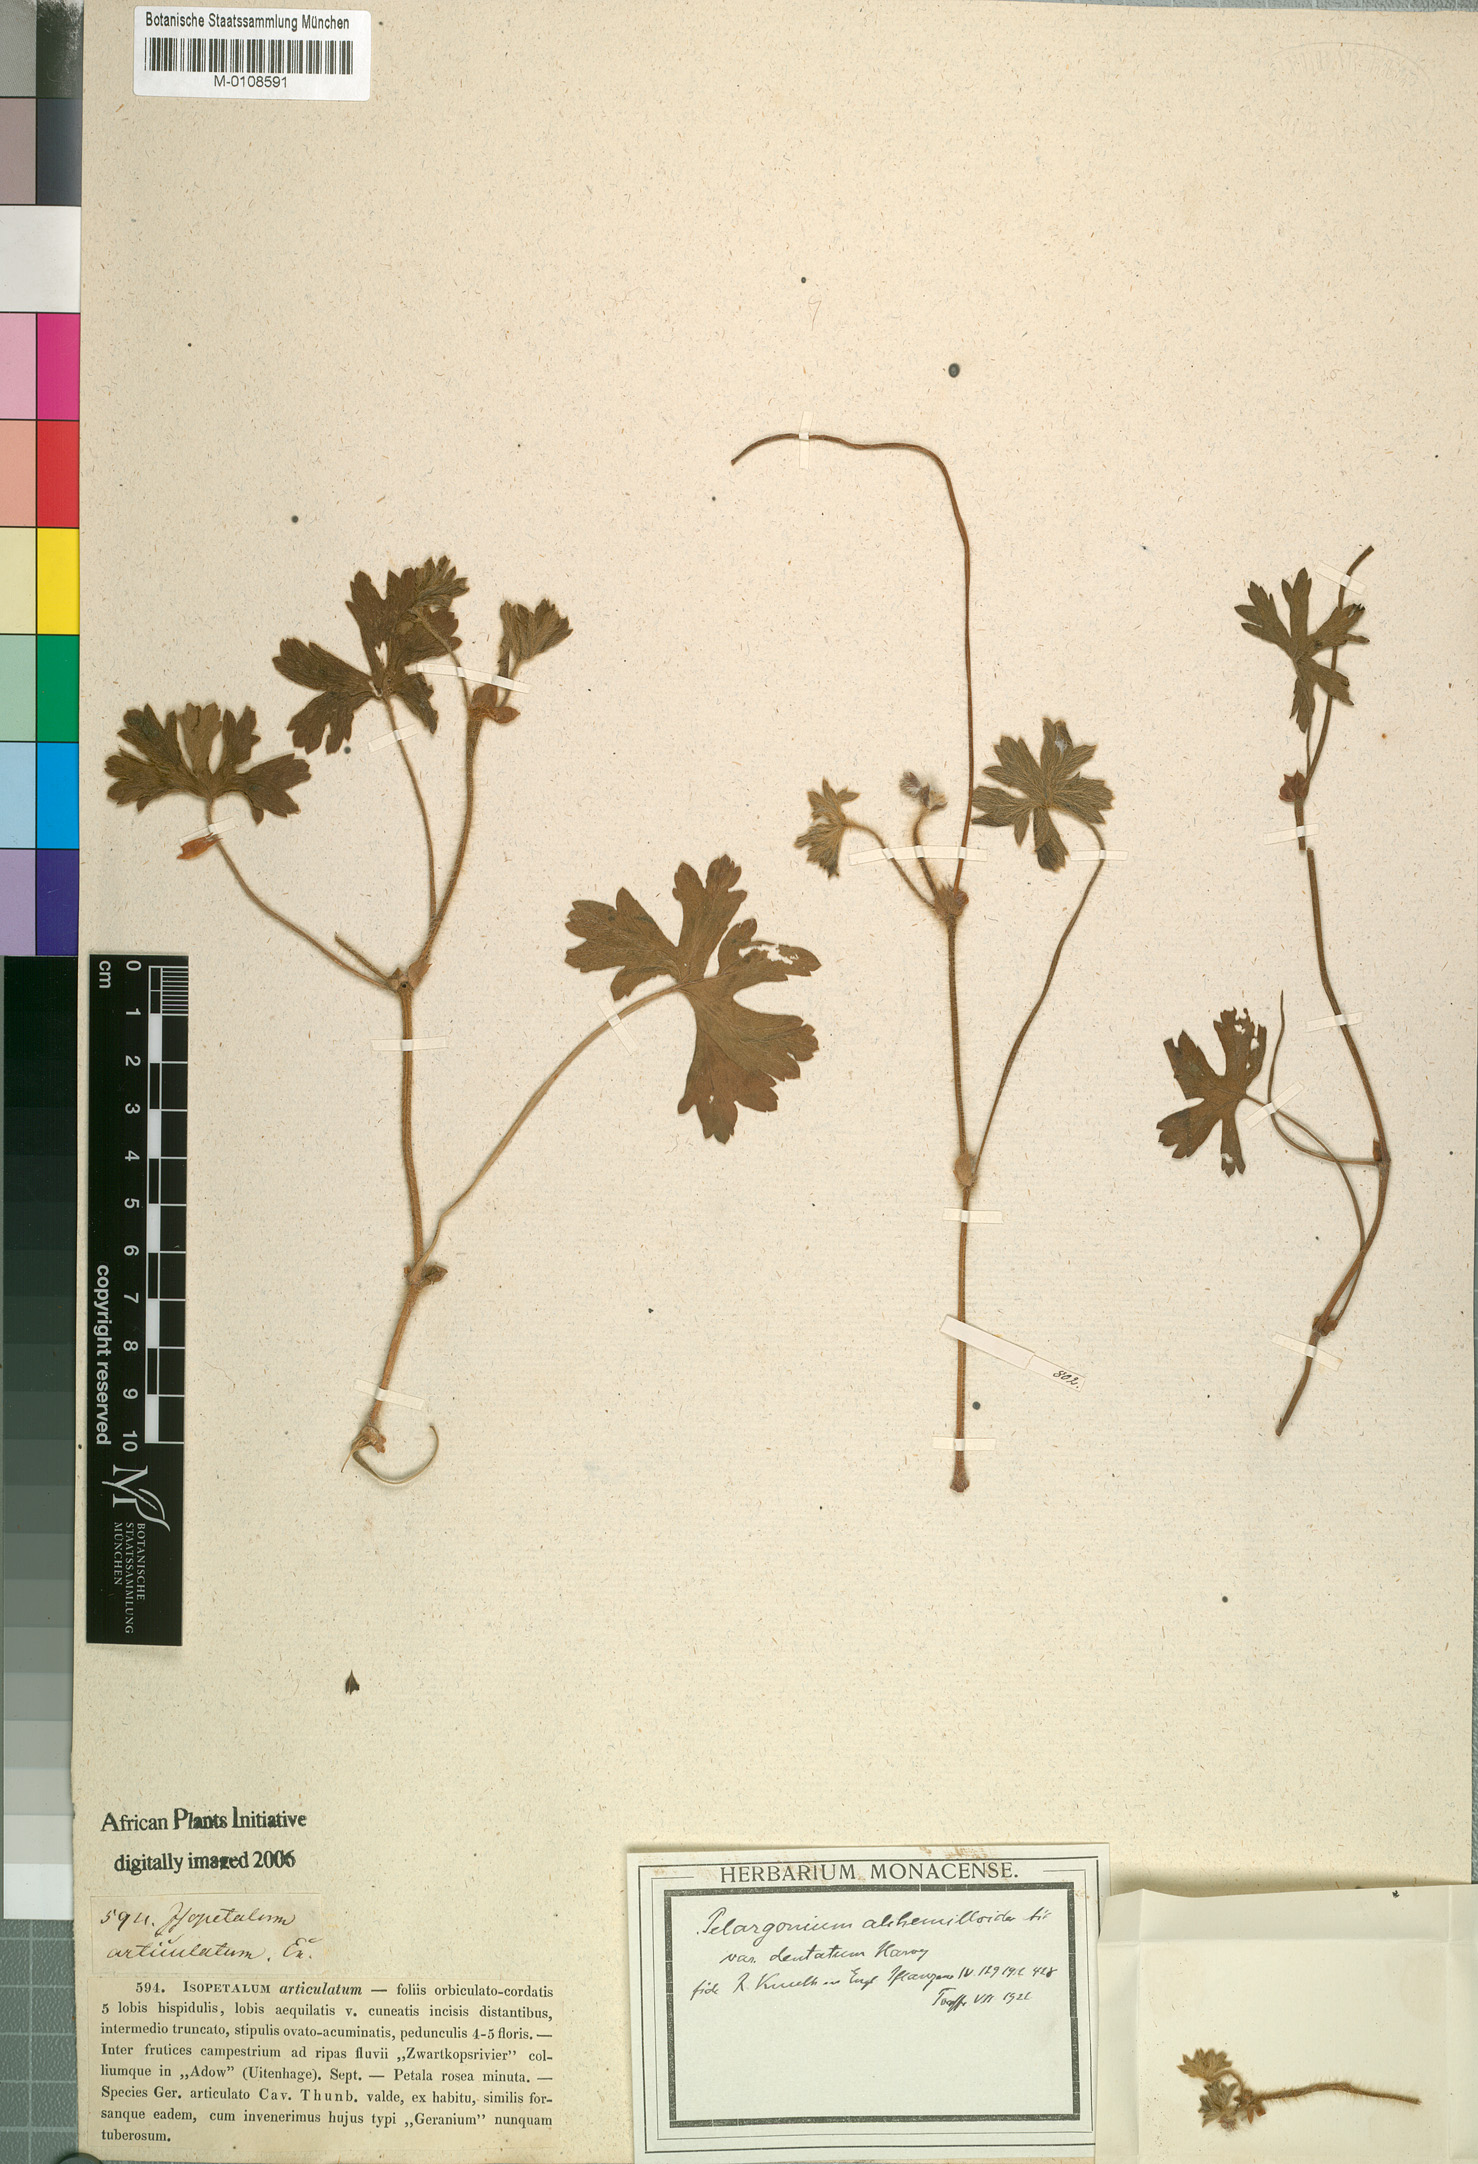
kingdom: Plantae
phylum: Tracheophyta
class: Magnoliopsida
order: Geraniales
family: Geraniaceae
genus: Pelargonium
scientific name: Pelargonium alchemilloides
